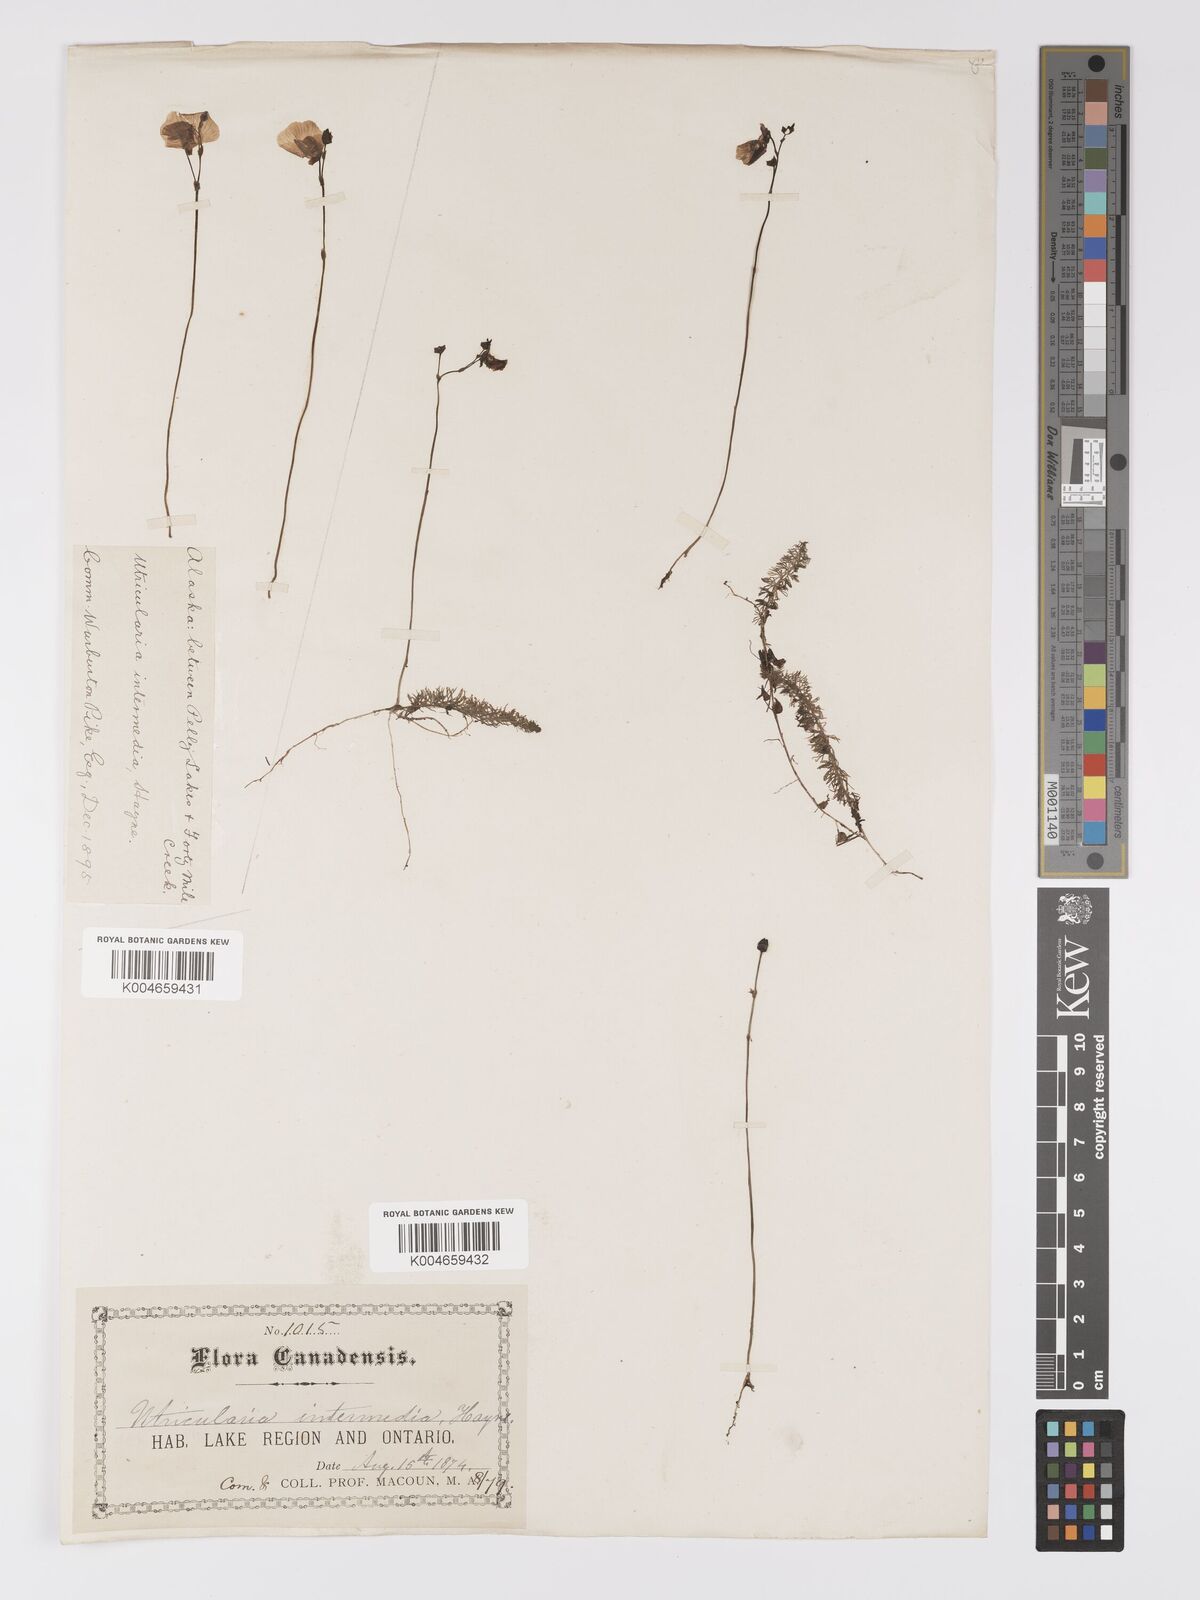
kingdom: Plantae
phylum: Tracheophyta
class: Magnoliopsida
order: Lamiales
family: Lentibulariaceae
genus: Utricularia
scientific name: Utricularia intermedia
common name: Intermediate bladderwort
